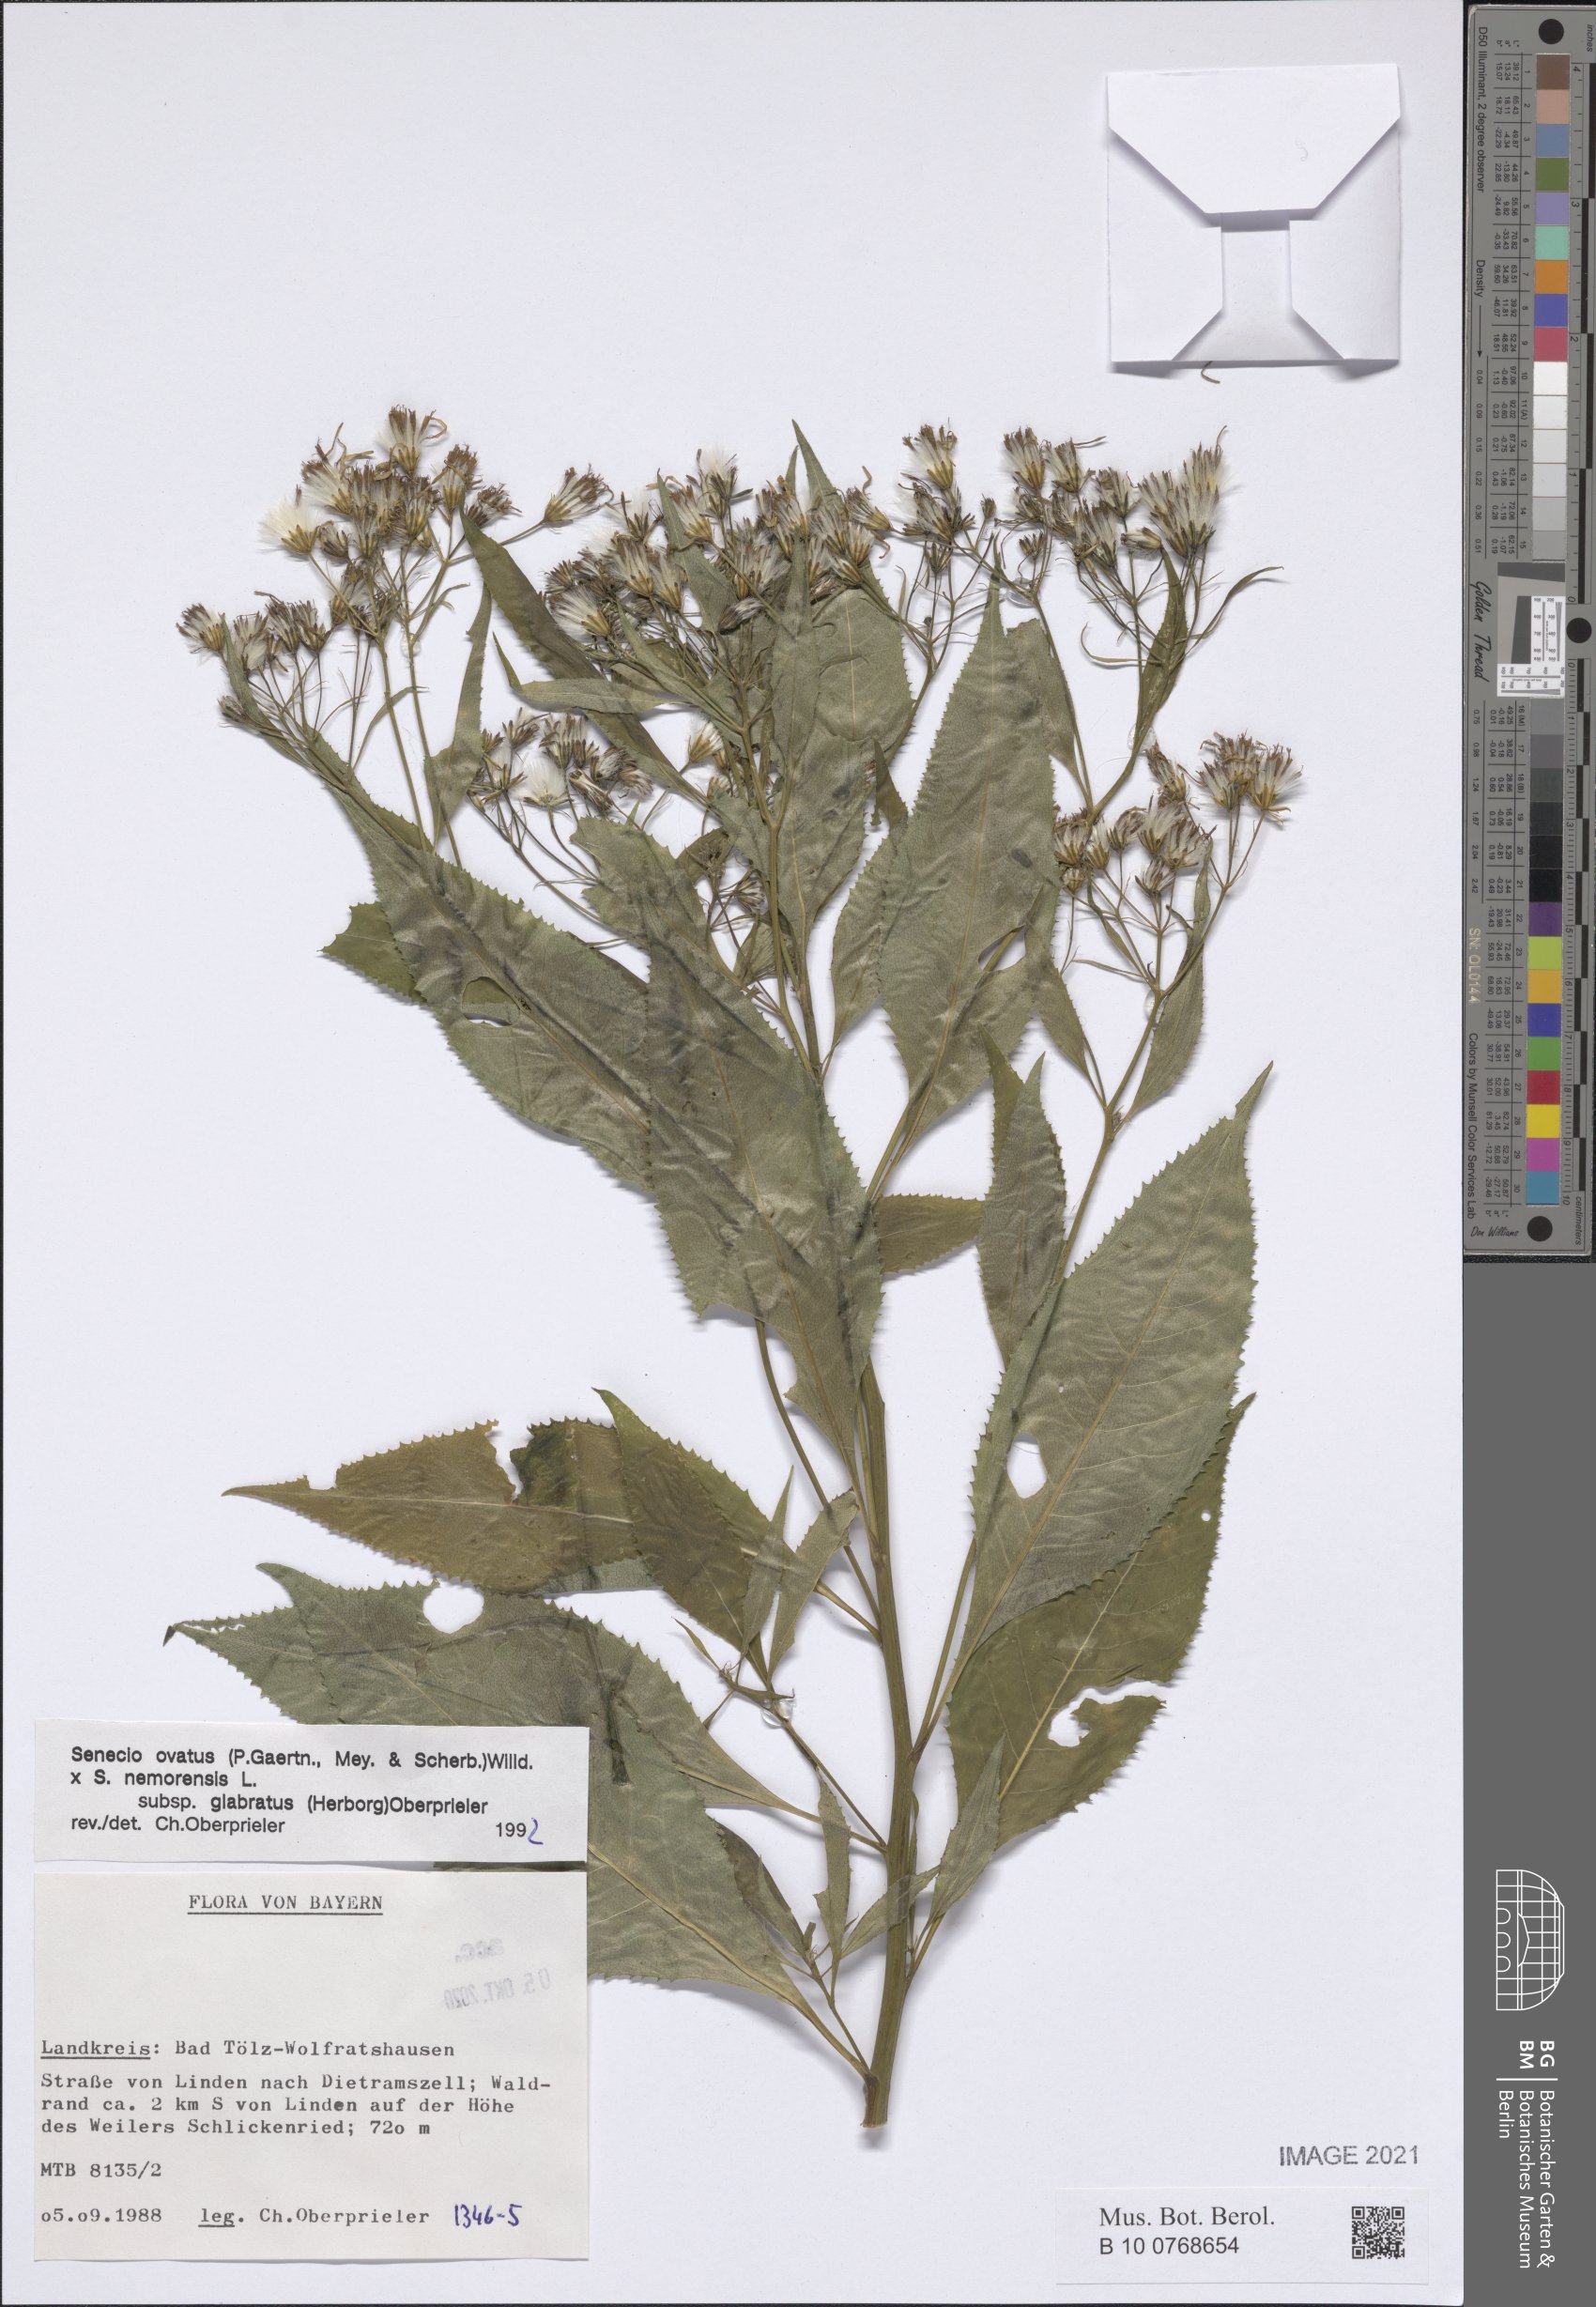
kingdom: Plantae
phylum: Tracheophyta
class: Magnoliopsida
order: Asterales
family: Asteraceae
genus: Senecio
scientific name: Senecio ovatus
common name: Wood ragwort
